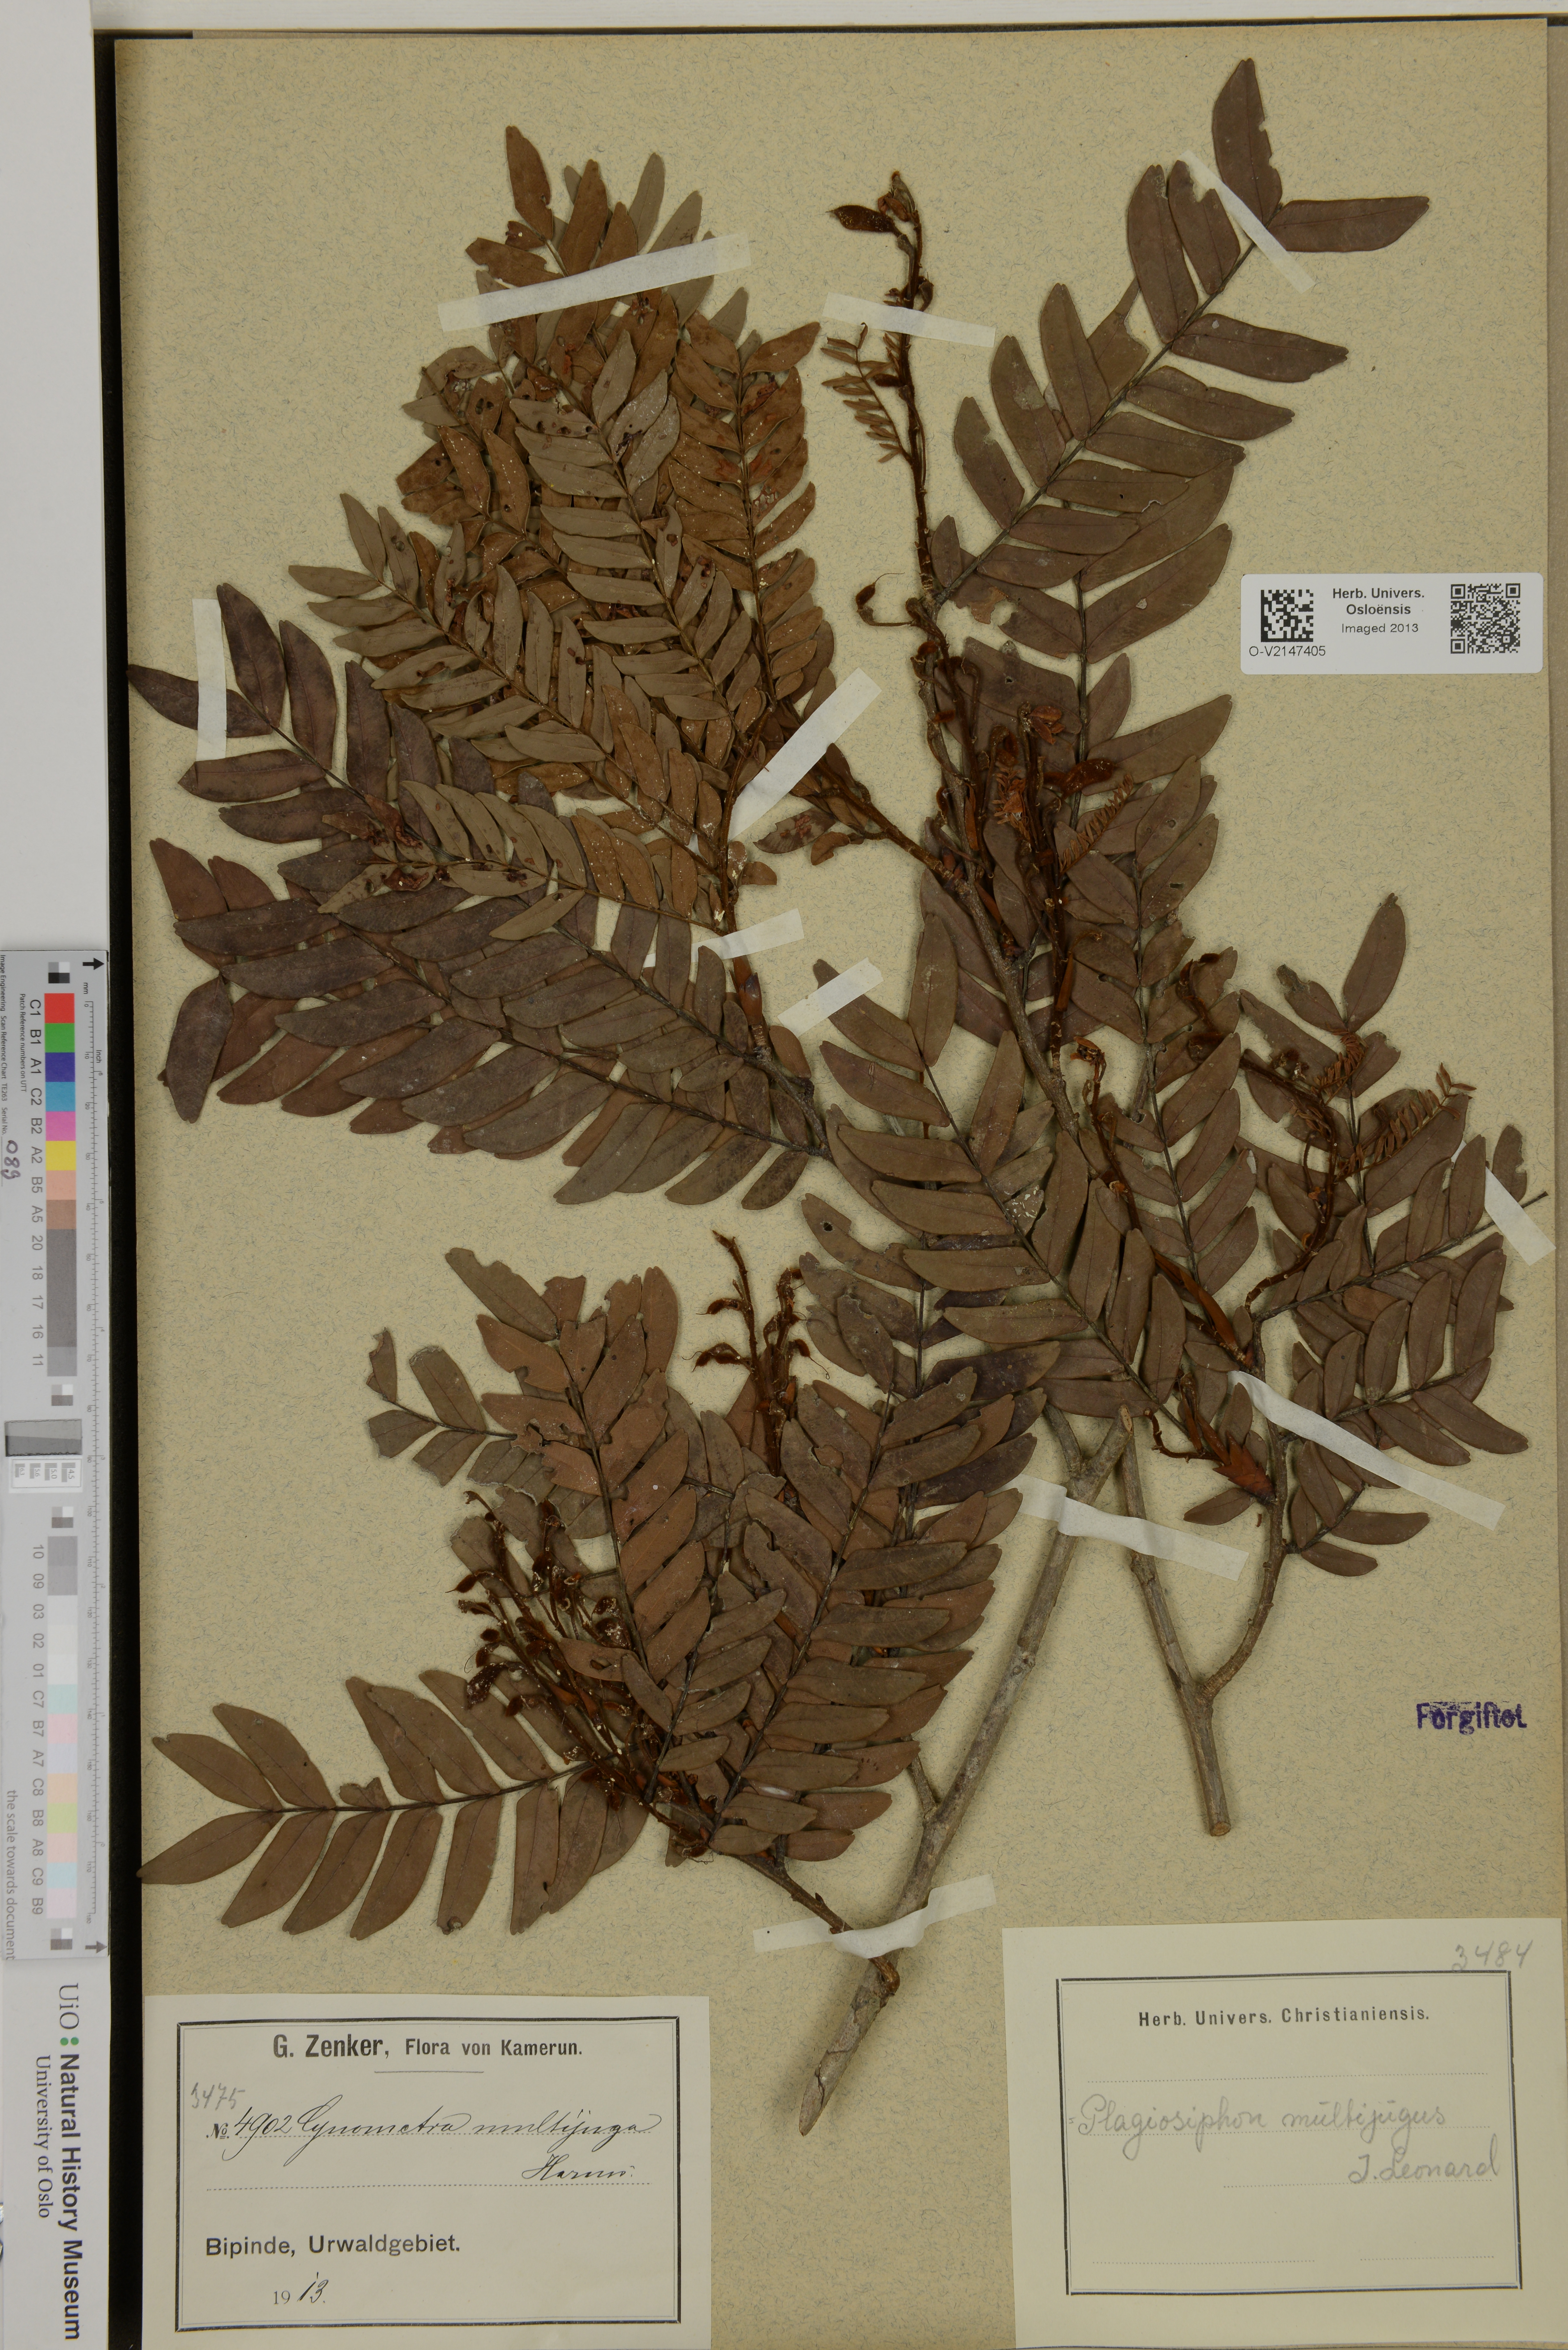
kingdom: Plantae
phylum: Tracheophyta
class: Magnoliopsida
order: Fabales
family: Fabaceae
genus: Plagiosiphon
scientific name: Plagiosiphon multijugus
